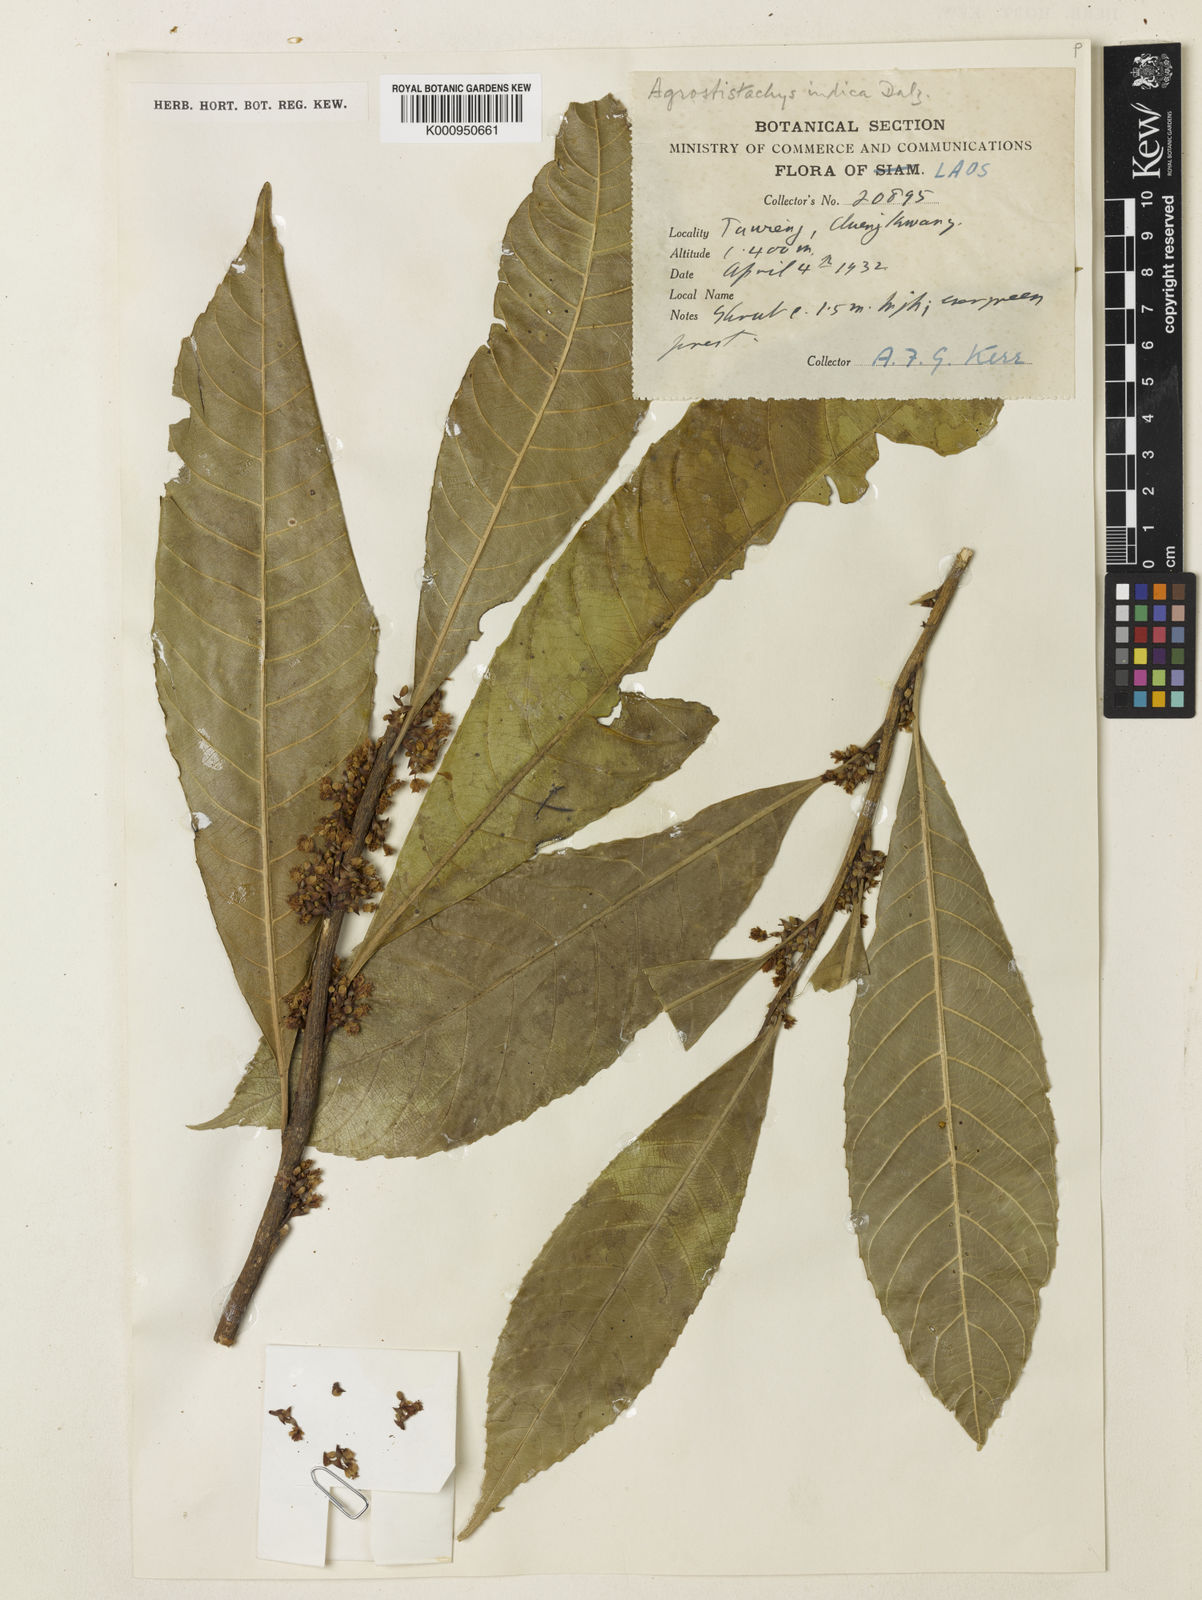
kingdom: Plantae
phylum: Tracheophyta
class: Magnoliopsida
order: Malpighiales
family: Euphorbiaceae
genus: Agrostistachys
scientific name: Agrostistachys indica
